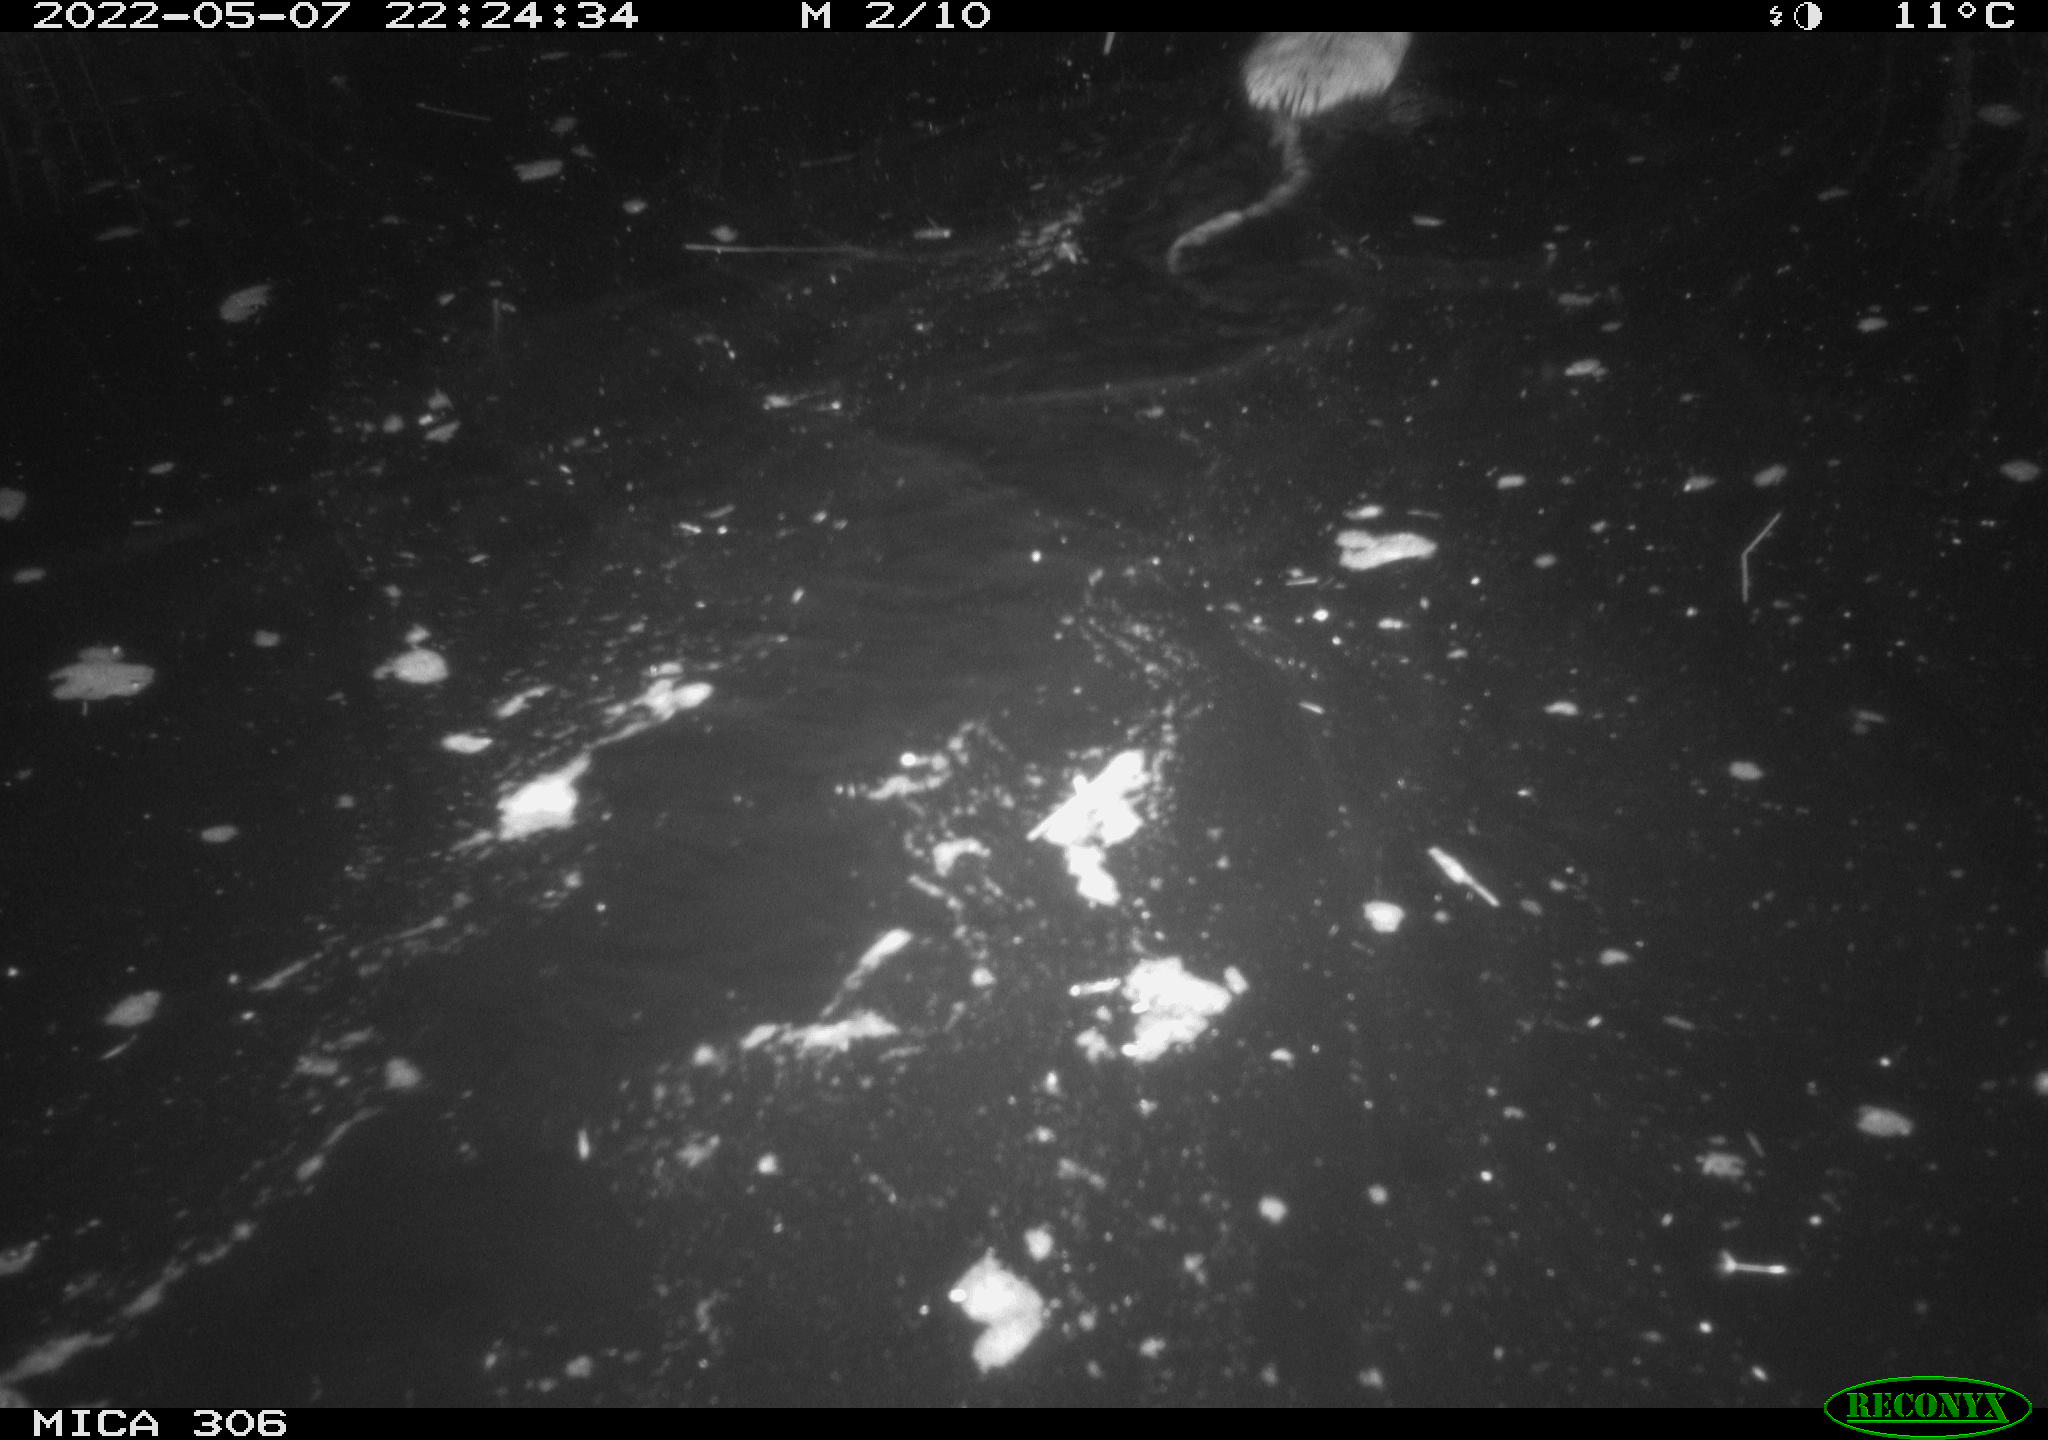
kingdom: Animalia
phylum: Chordata
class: Mammalia
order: Rodentia
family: Cricetidae
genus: Ondatra
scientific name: Ondatra zibethicus
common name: Muskrat
